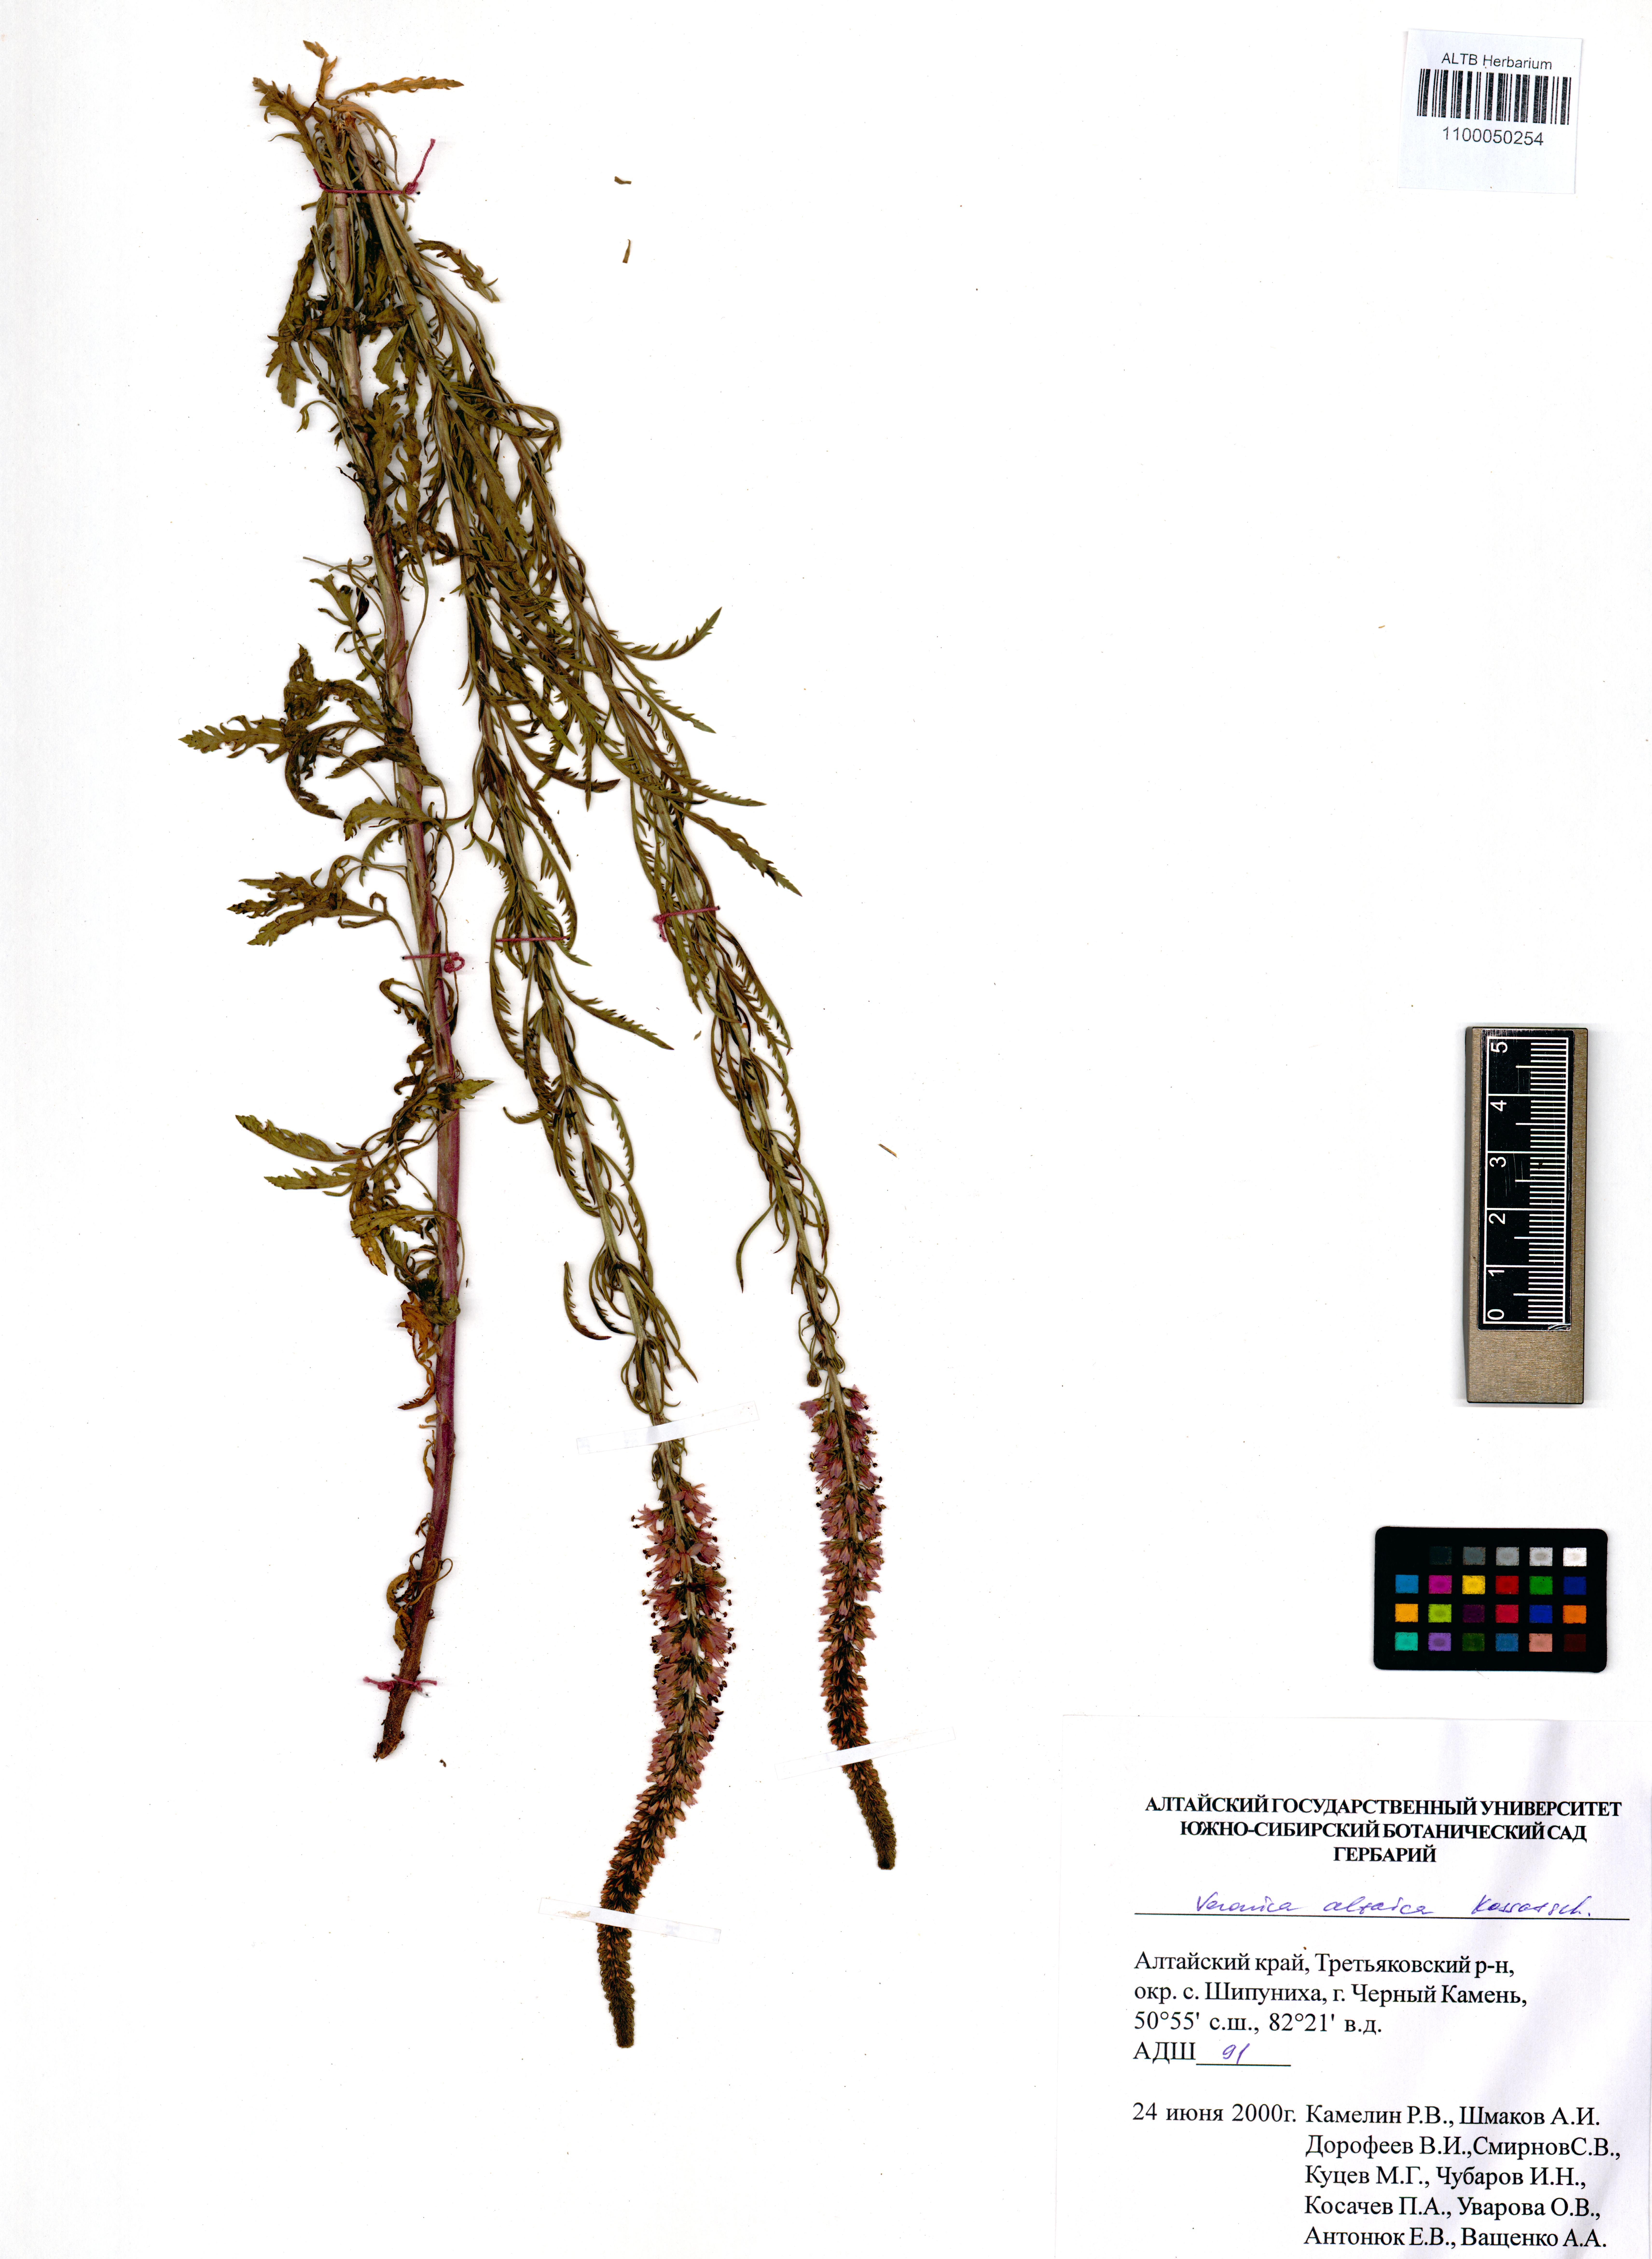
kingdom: Plantae
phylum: Tracheophyta
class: Magnoliopsida
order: Lamiales
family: Plantaginaceae
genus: Veronica
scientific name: Veronica altaica
